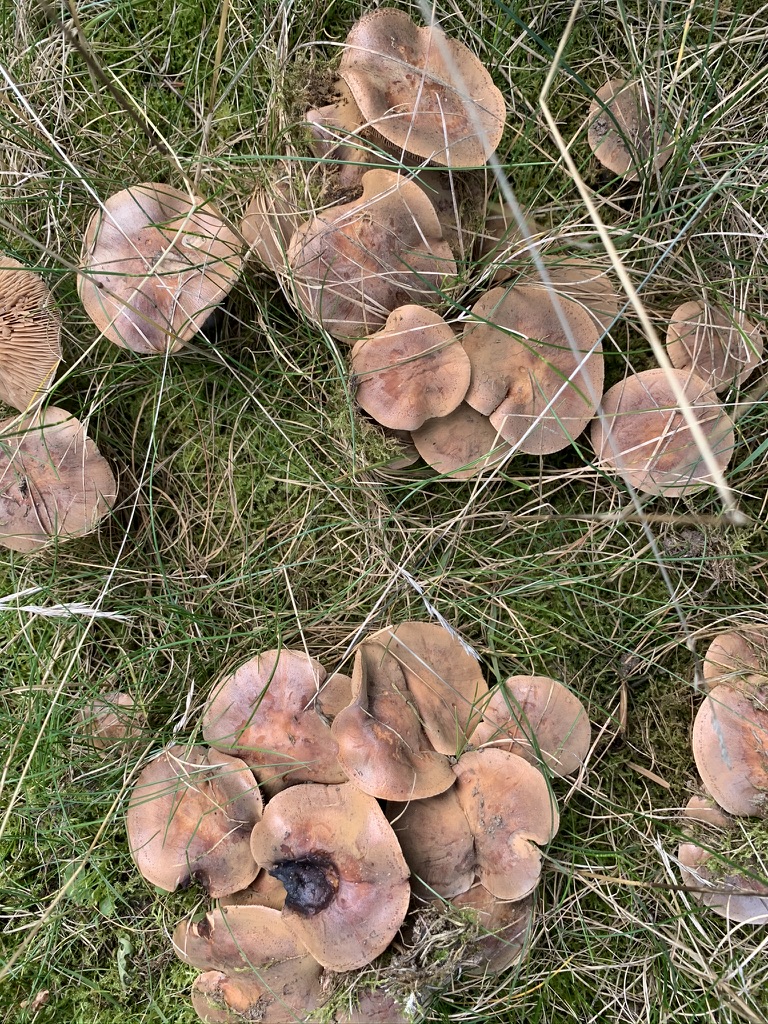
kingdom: Fungi
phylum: Basidiomycota
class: Agaricomycetes
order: Agaricales
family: Hymenogastraceae
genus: Hebeloma
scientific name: Hebeloma
